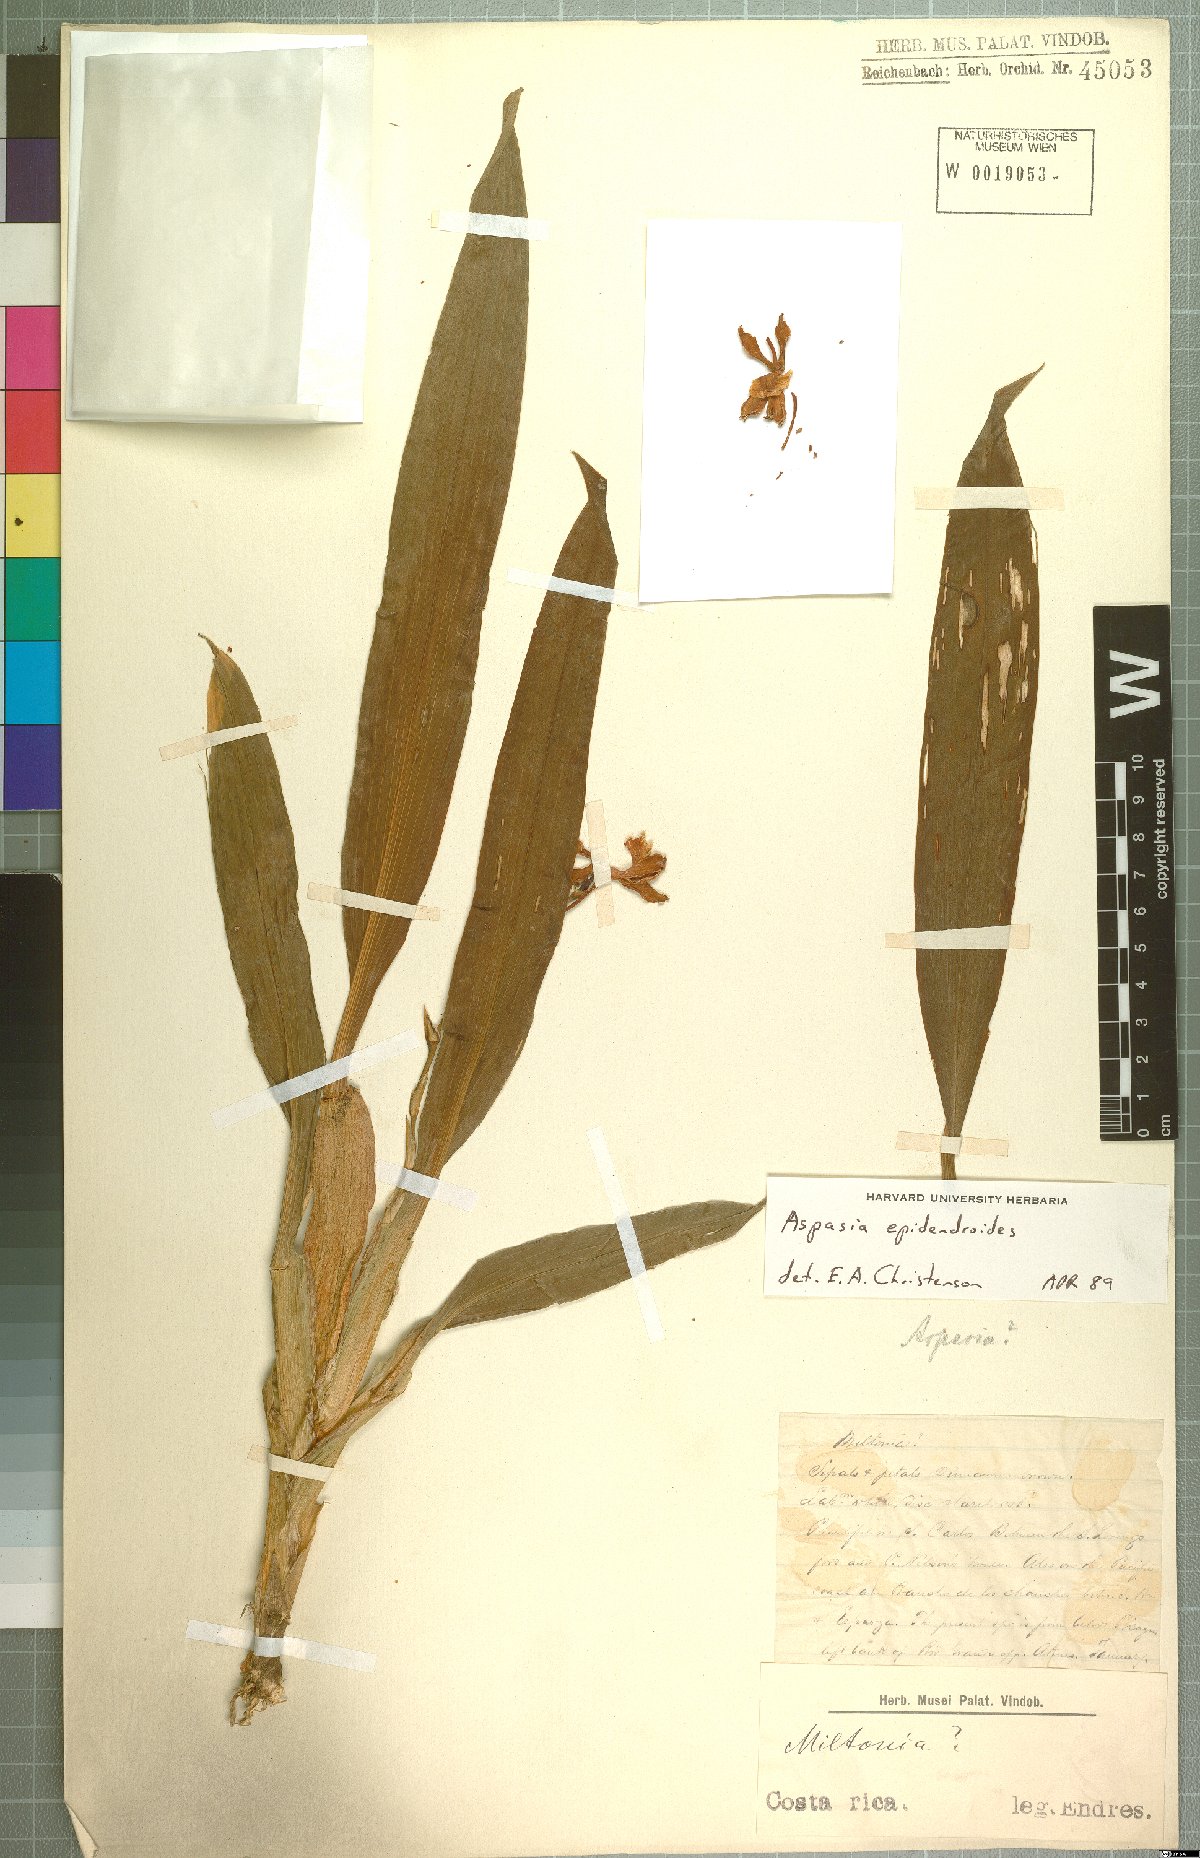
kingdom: Plantae
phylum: Tracheophyta
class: Liliopsida
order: Asparagales
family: Orchidaceae
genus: Aspasia
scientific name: Aspasia epidendroides
